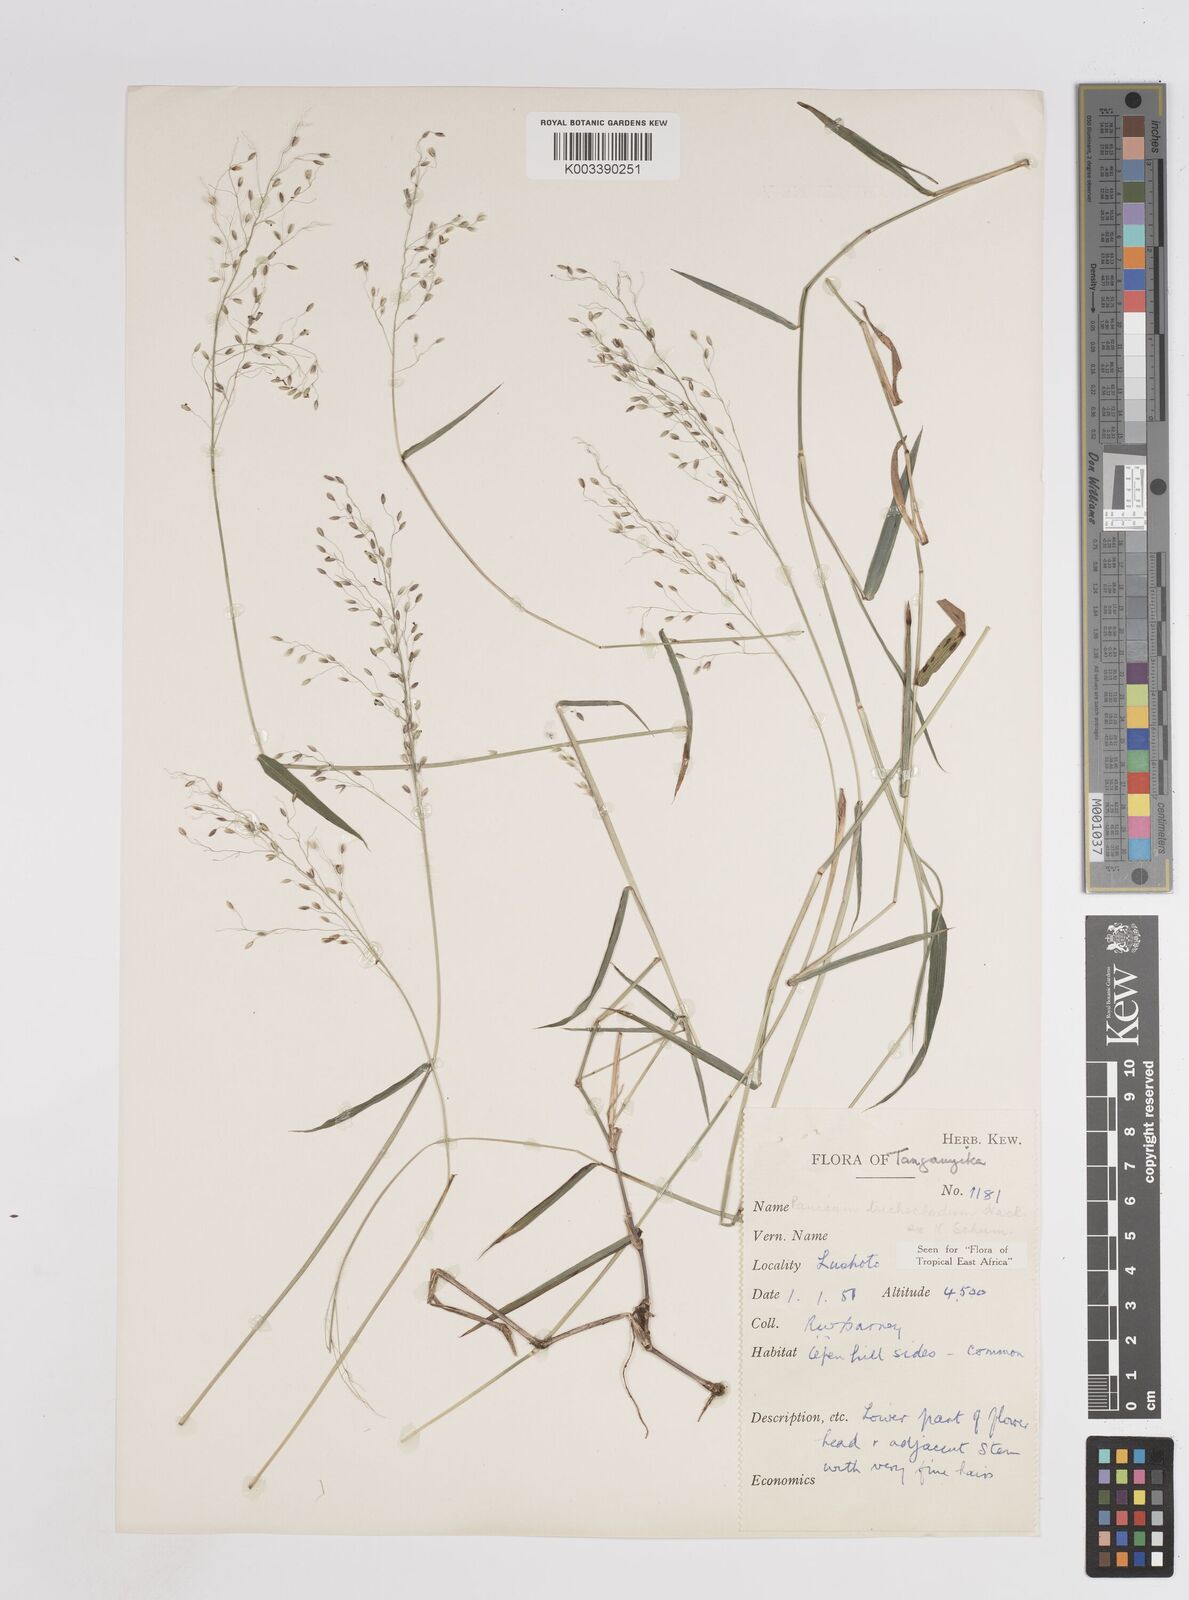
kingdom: Plantae
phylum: Tracheophyta
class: Liliopsida
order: Poales
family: Poaceae
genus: Panicum
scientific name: Panicum trichocladum
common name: Donkey grass
